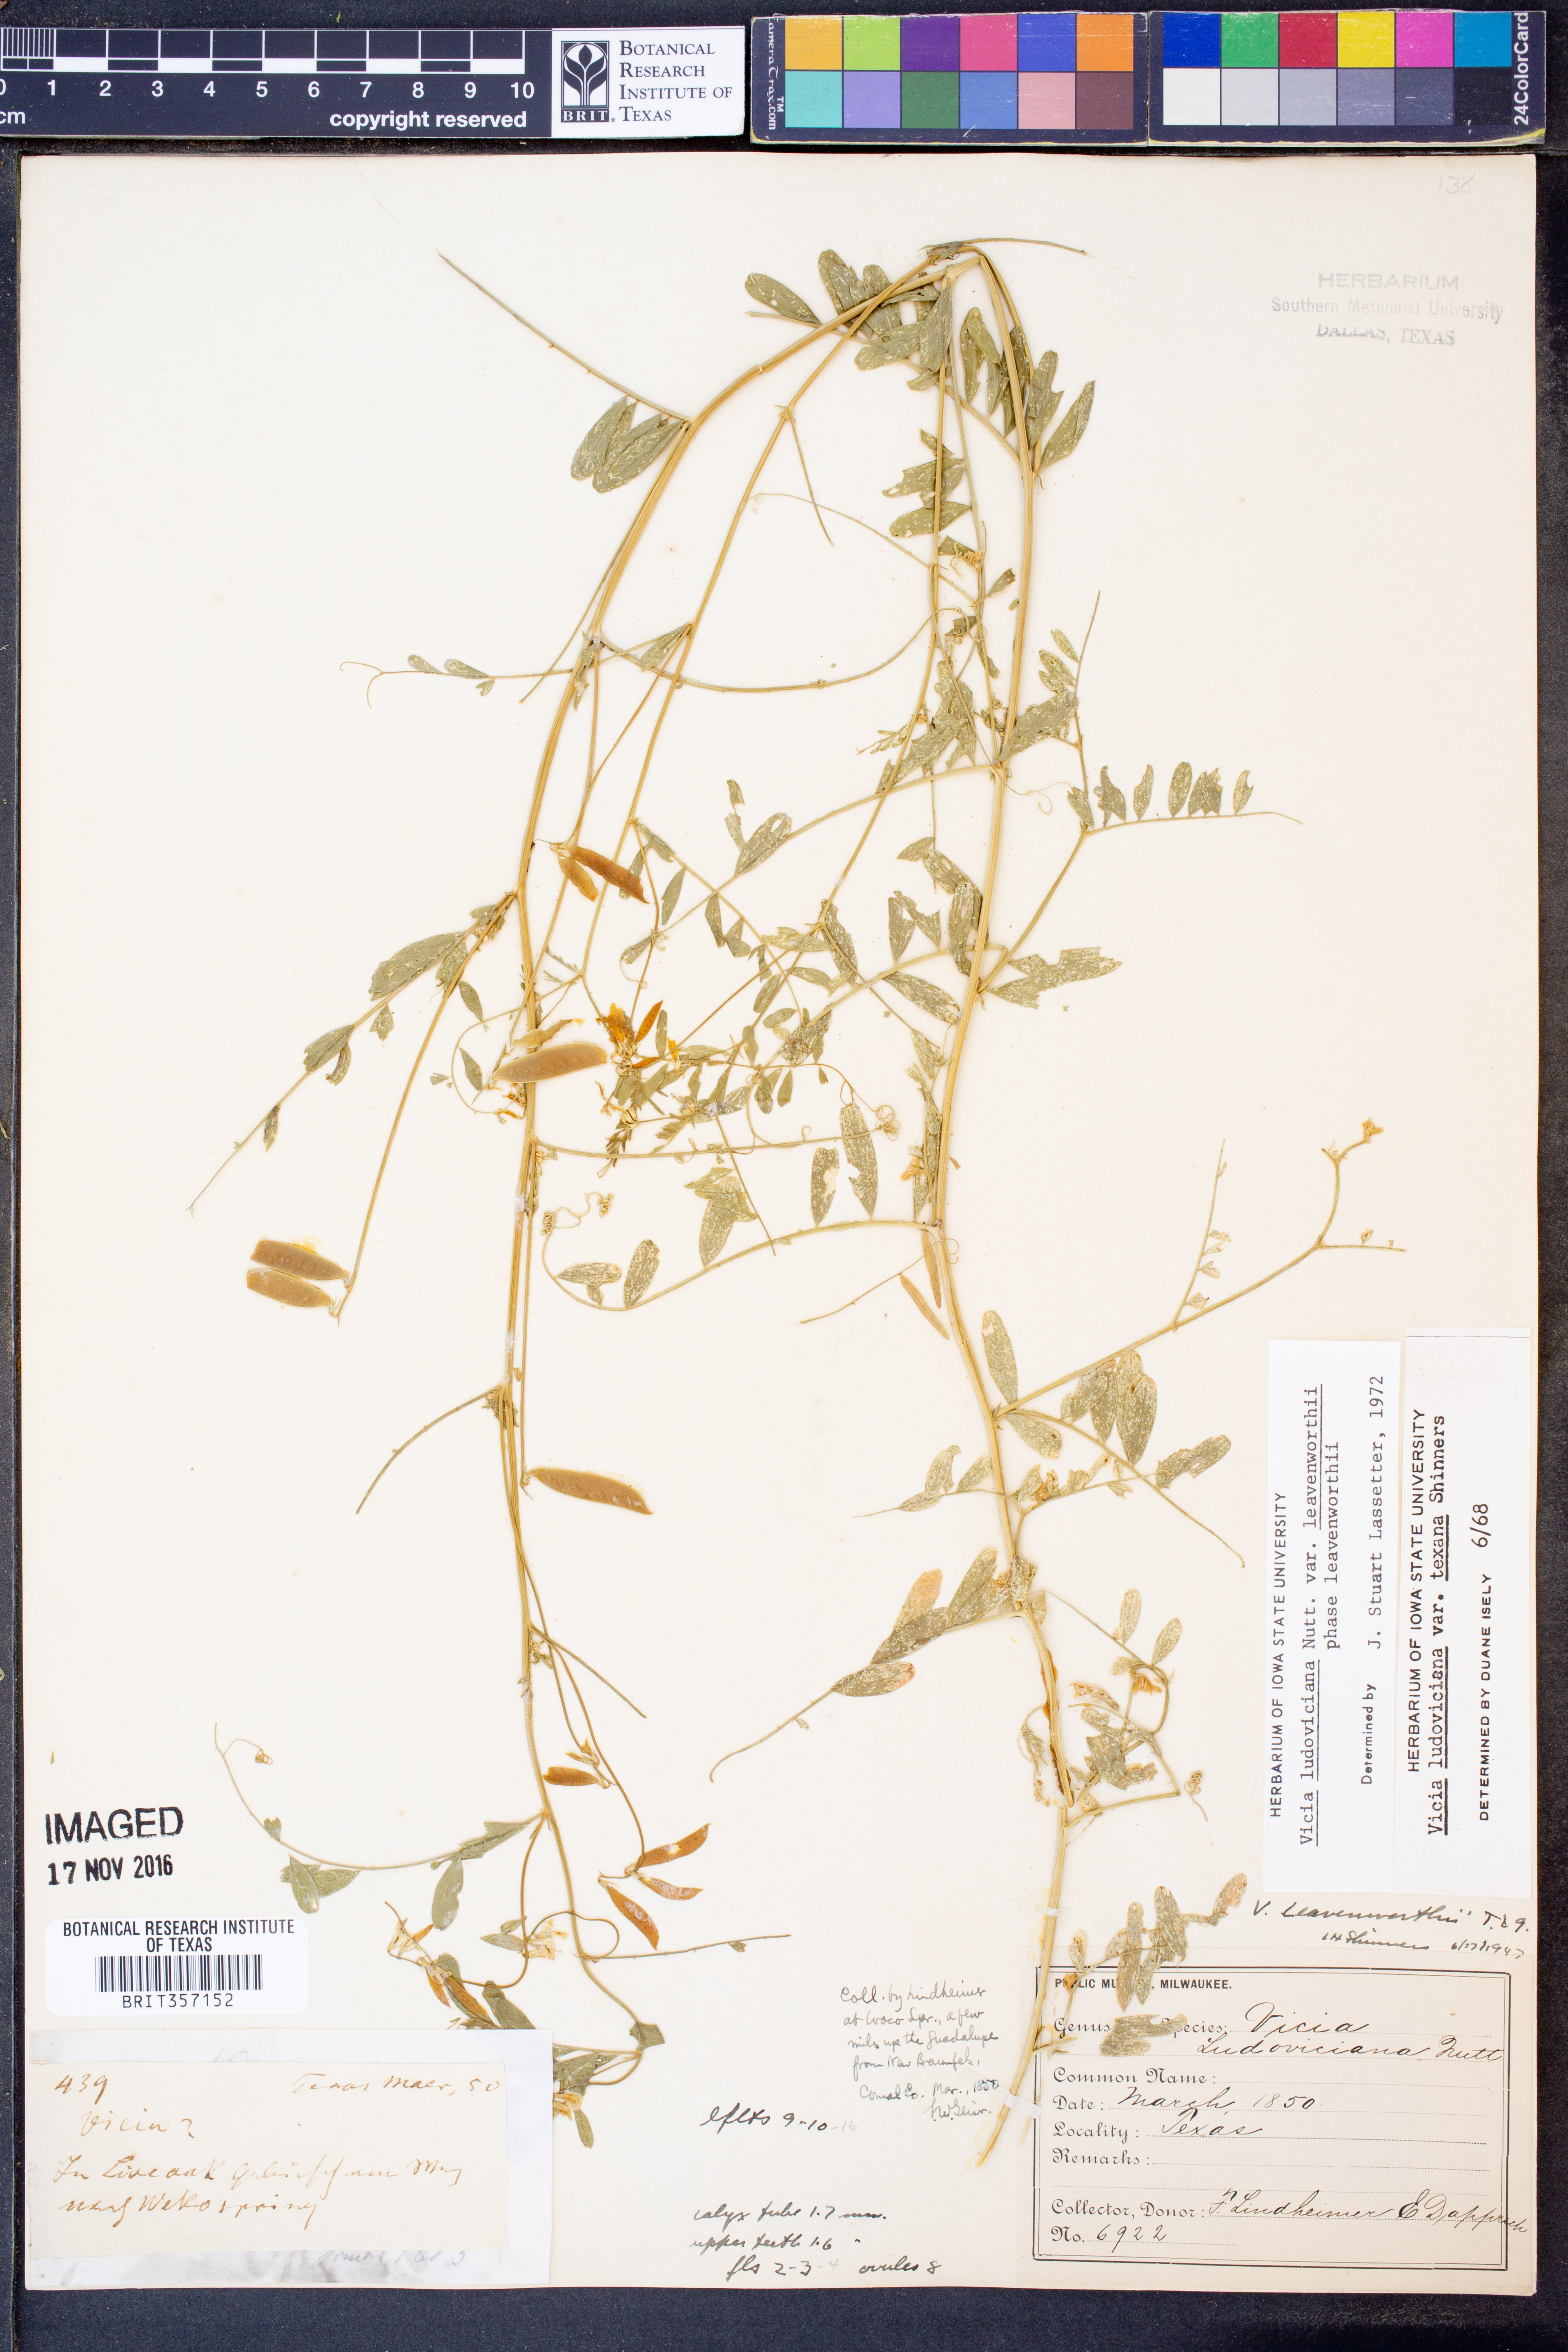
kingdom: Plantae
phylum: Tracheophyta
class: Magnoliopsida
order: Fabales
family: Fabaceae
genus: Vicia
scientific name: Vicia ludoviciana
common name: Louisiana vetch
